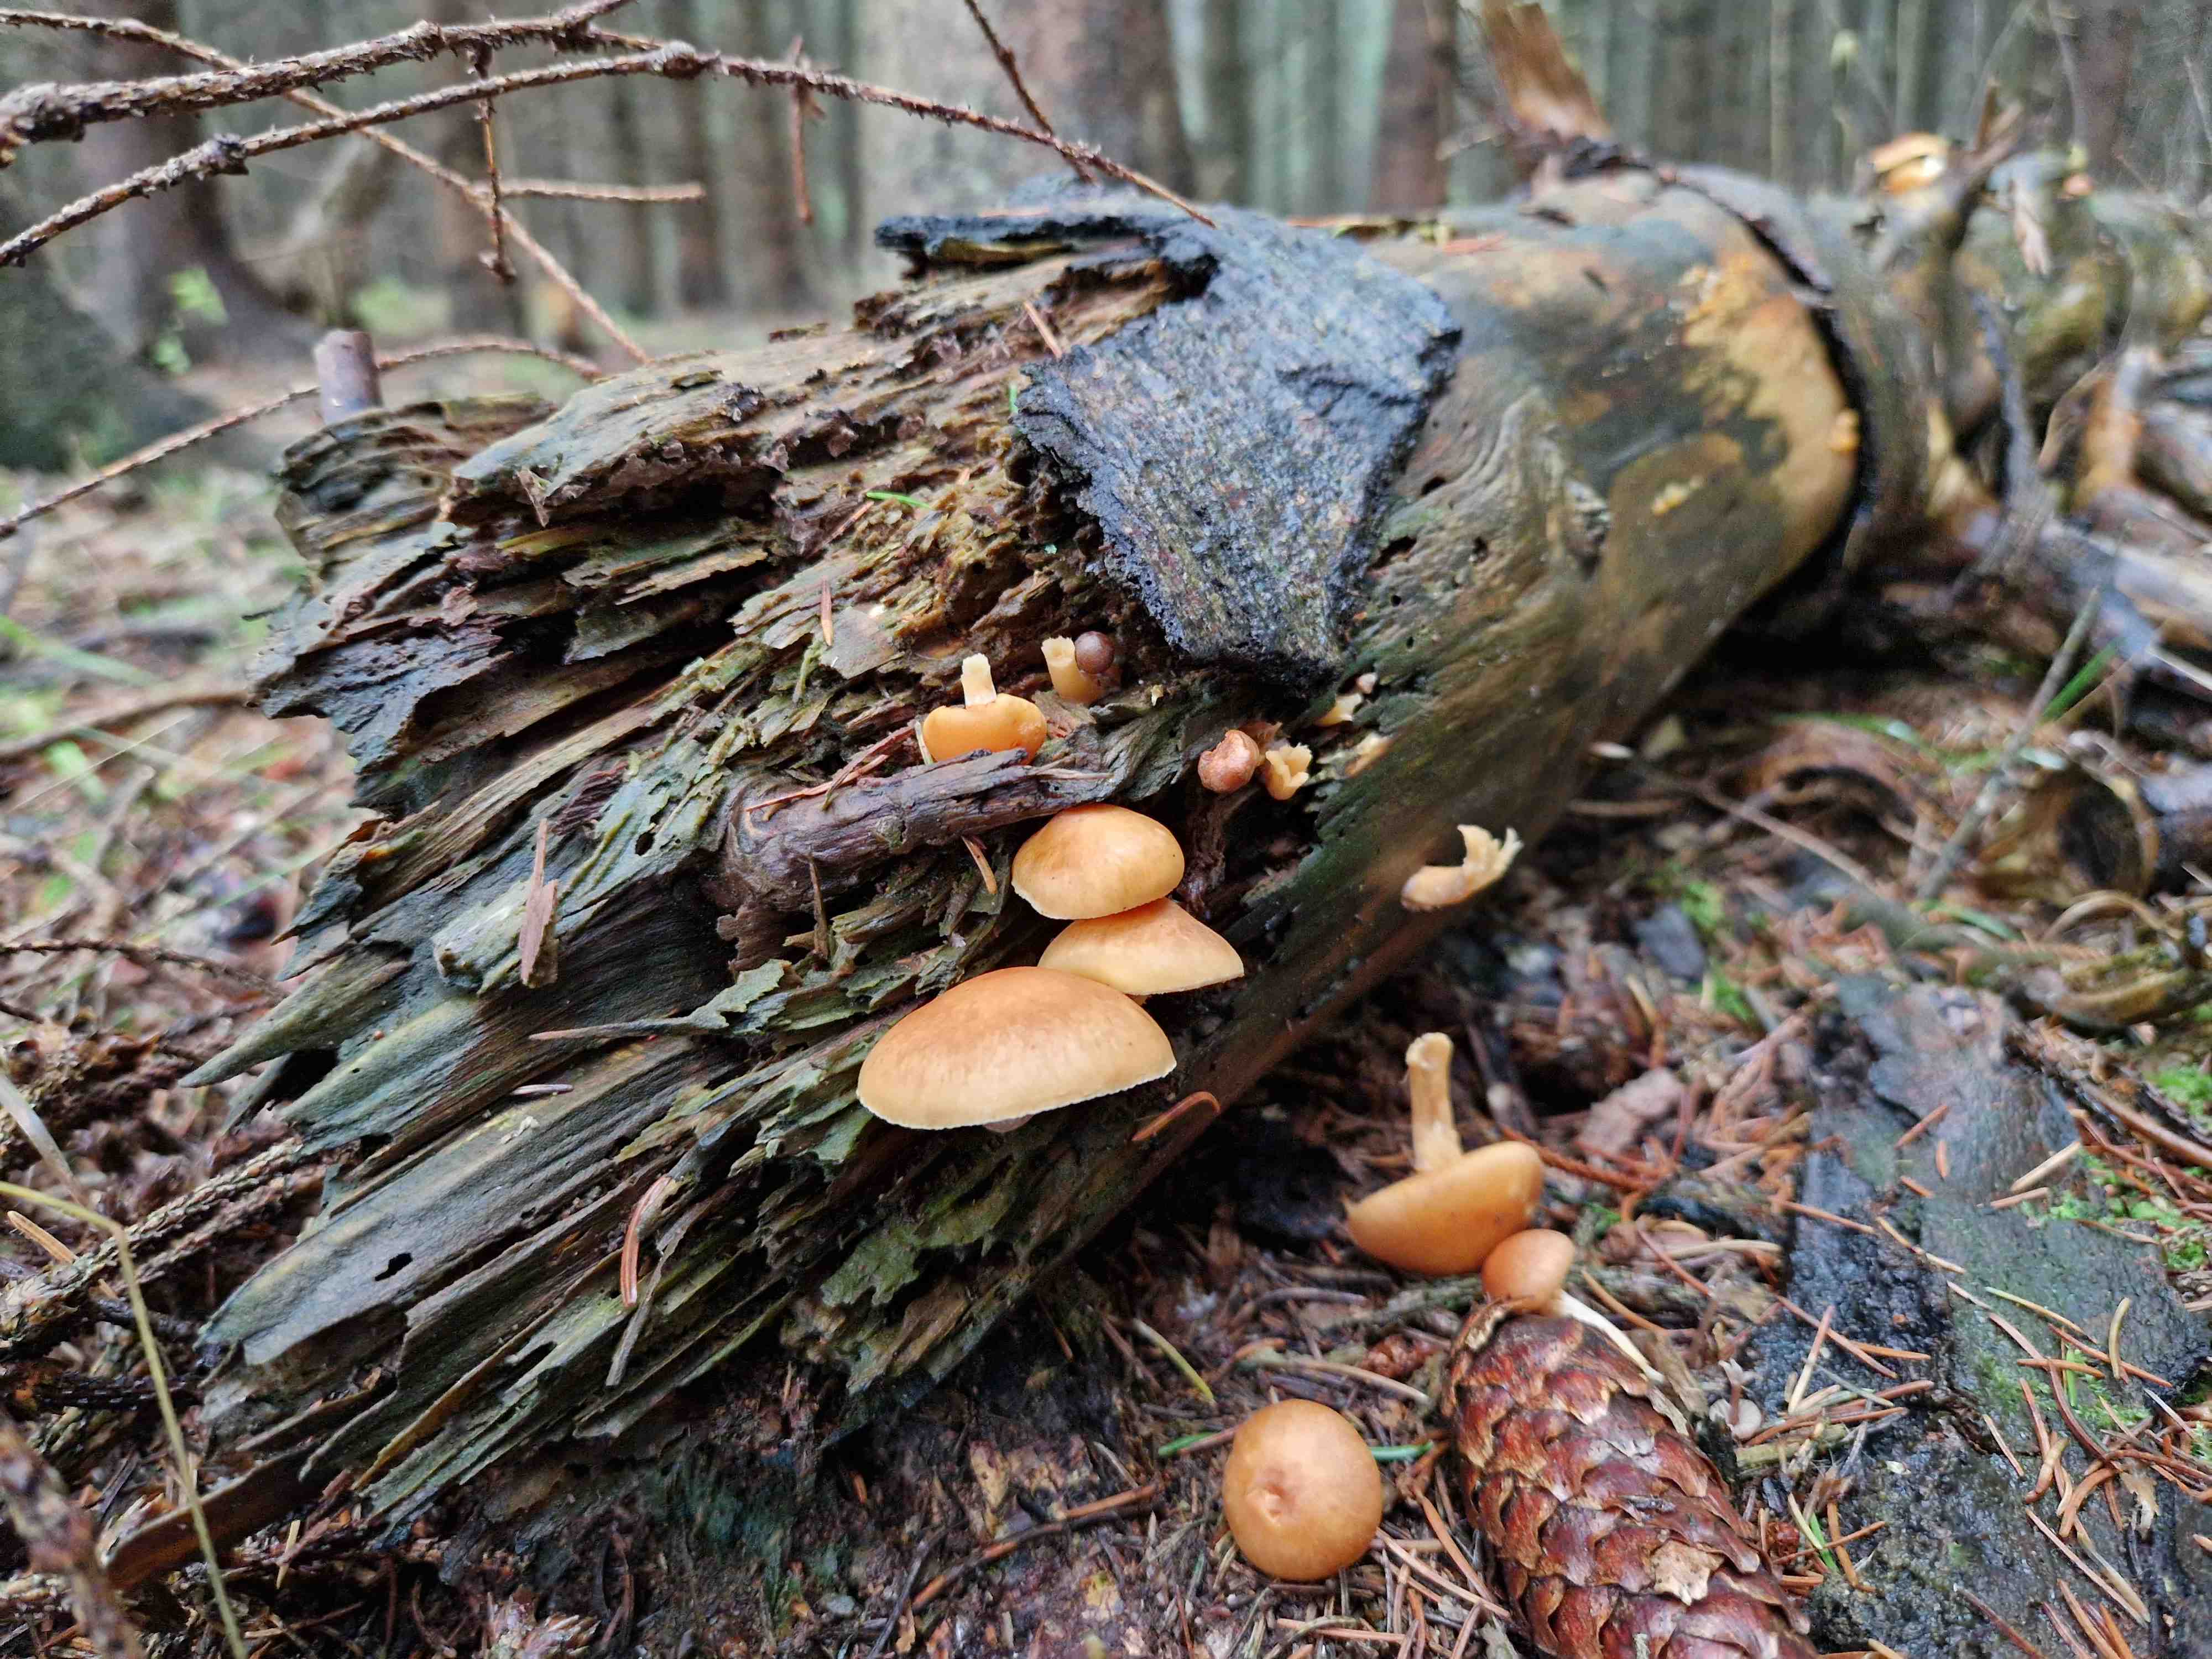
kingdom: Fungi
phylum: Basidiomycota
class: Agaricomycetes
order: Agaricales
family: Hymenogastraceae
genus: Gymnopilus
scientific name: Gymnopilus penetrans
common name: plettet flammehat
